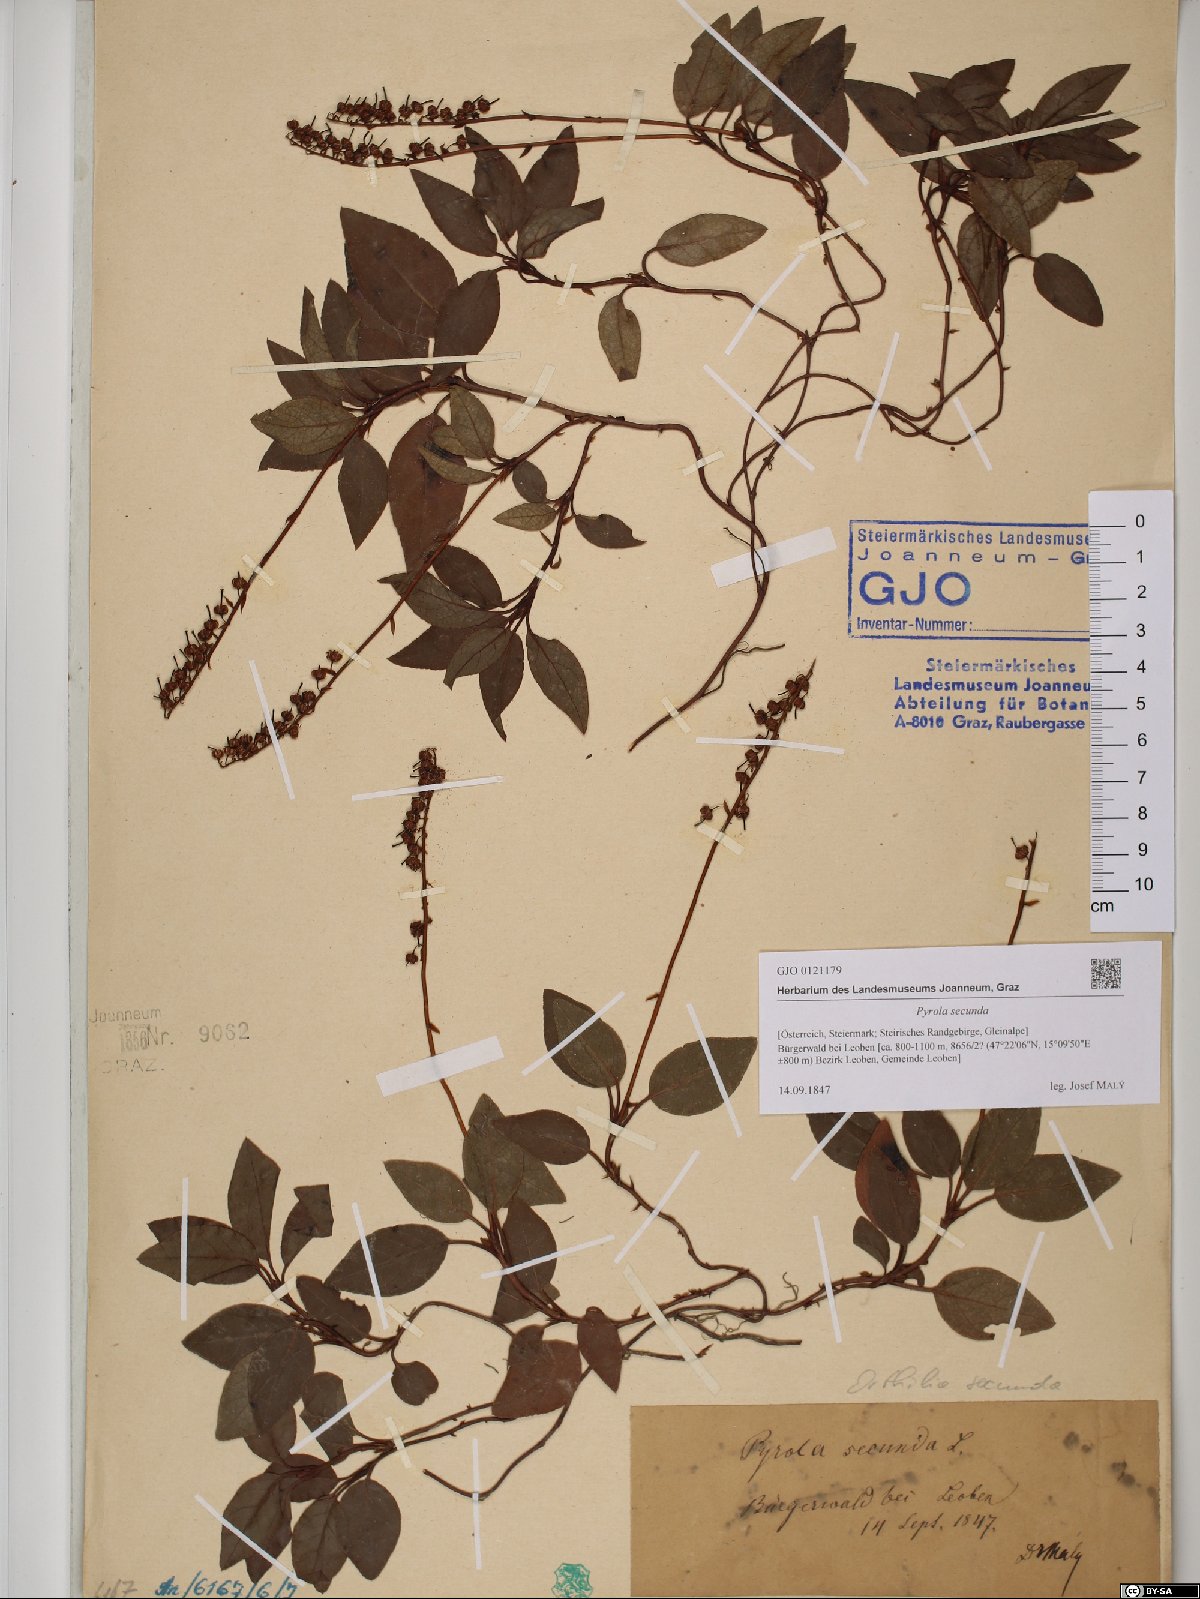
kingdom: Plantae
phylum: Tracheophyta
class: Magnoliopsida
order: Ericales
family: Ericaceae
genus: Orthilia
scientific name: Orthilia secunda
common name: One-sided orthilia
